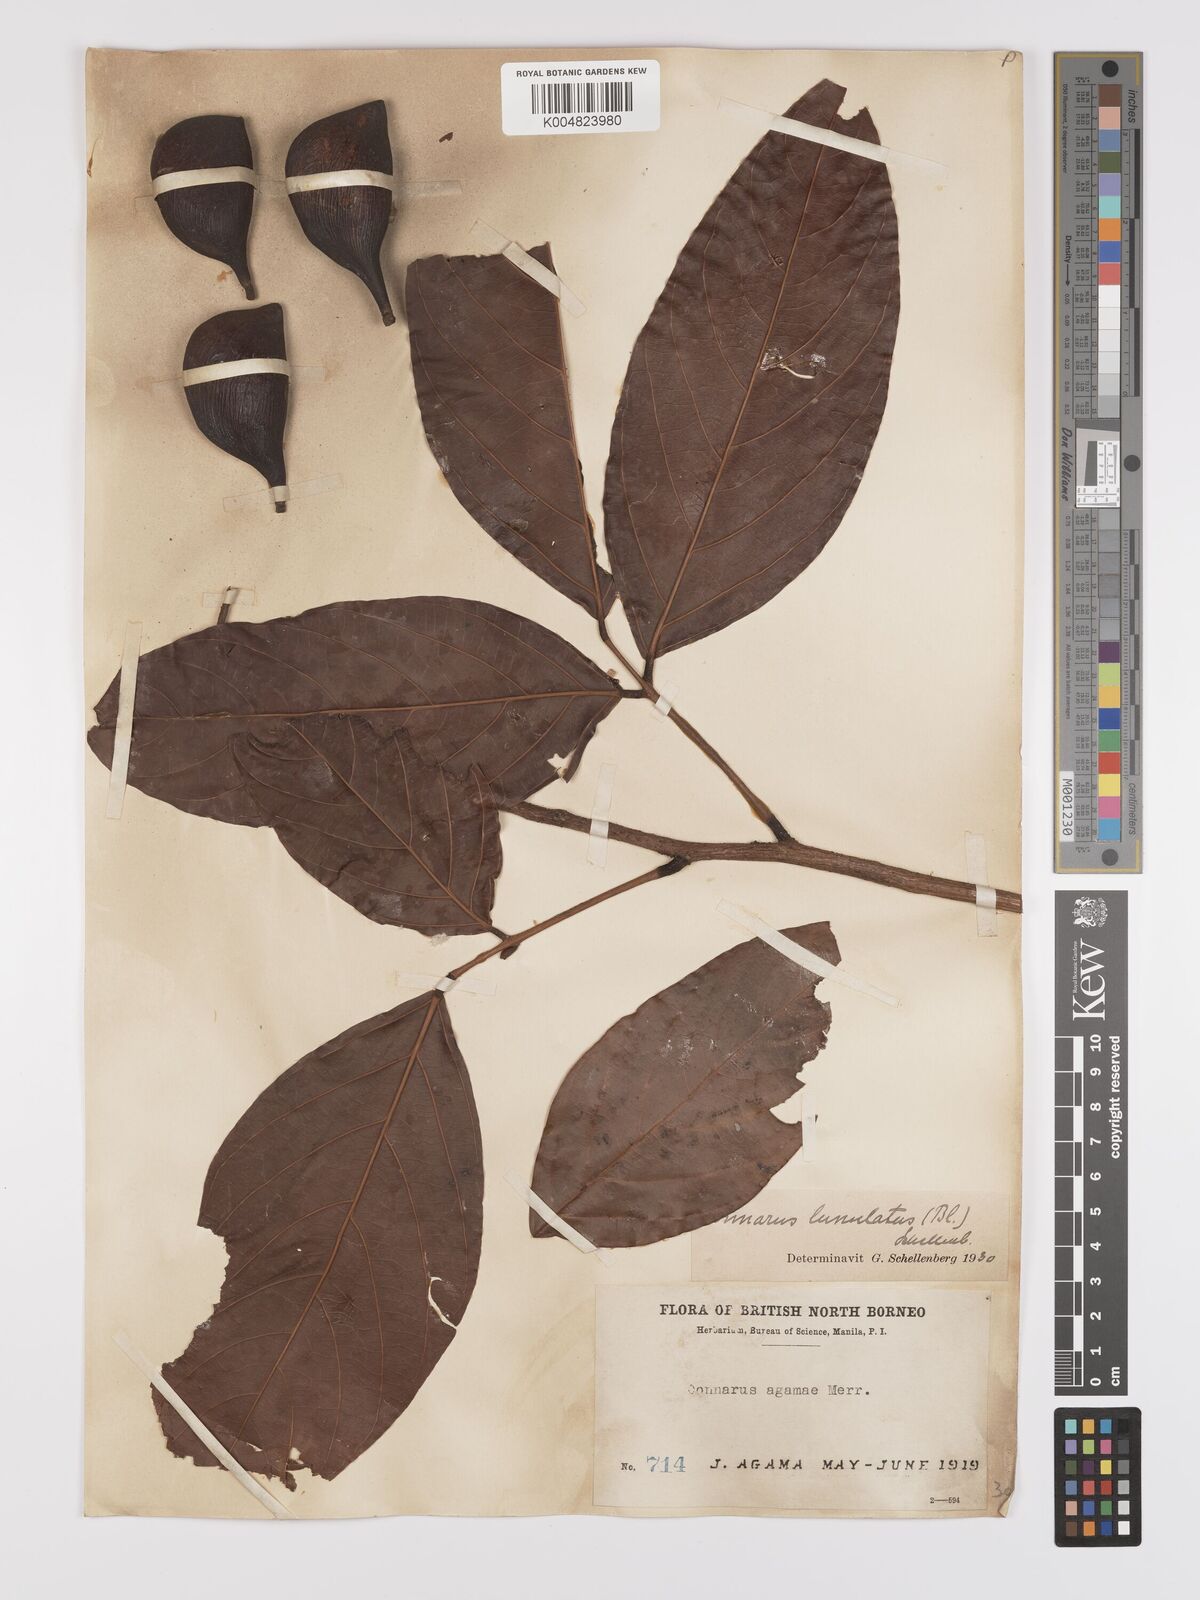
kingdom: Plantae
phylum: Tracheophyta
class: Magnoliopsida
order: Oxalidales
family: Connaraceae
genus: Connarus
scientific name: Connarus grandis
